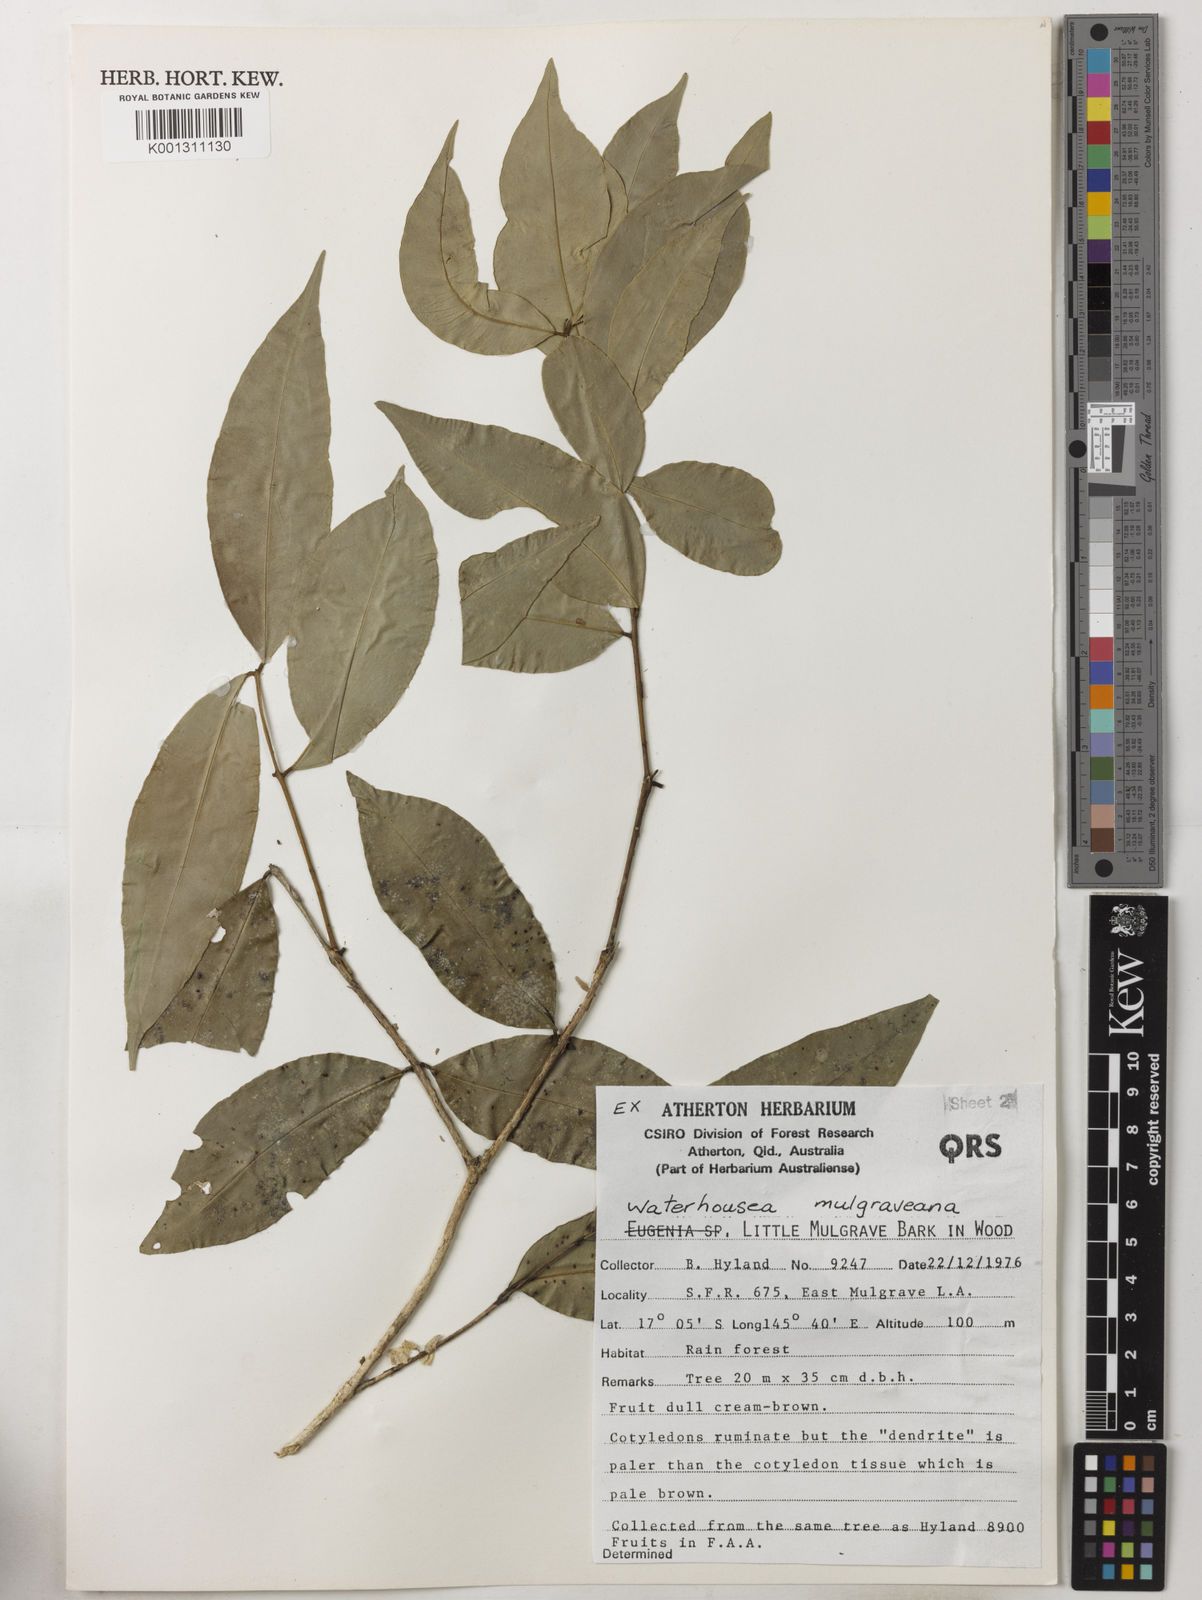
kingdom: Plantae
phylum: Tracheophyta
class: Magnoliopsida
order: Myrtales
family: Myrtaceae
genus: Syzygium
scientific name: Syzygium mulgraveanum
